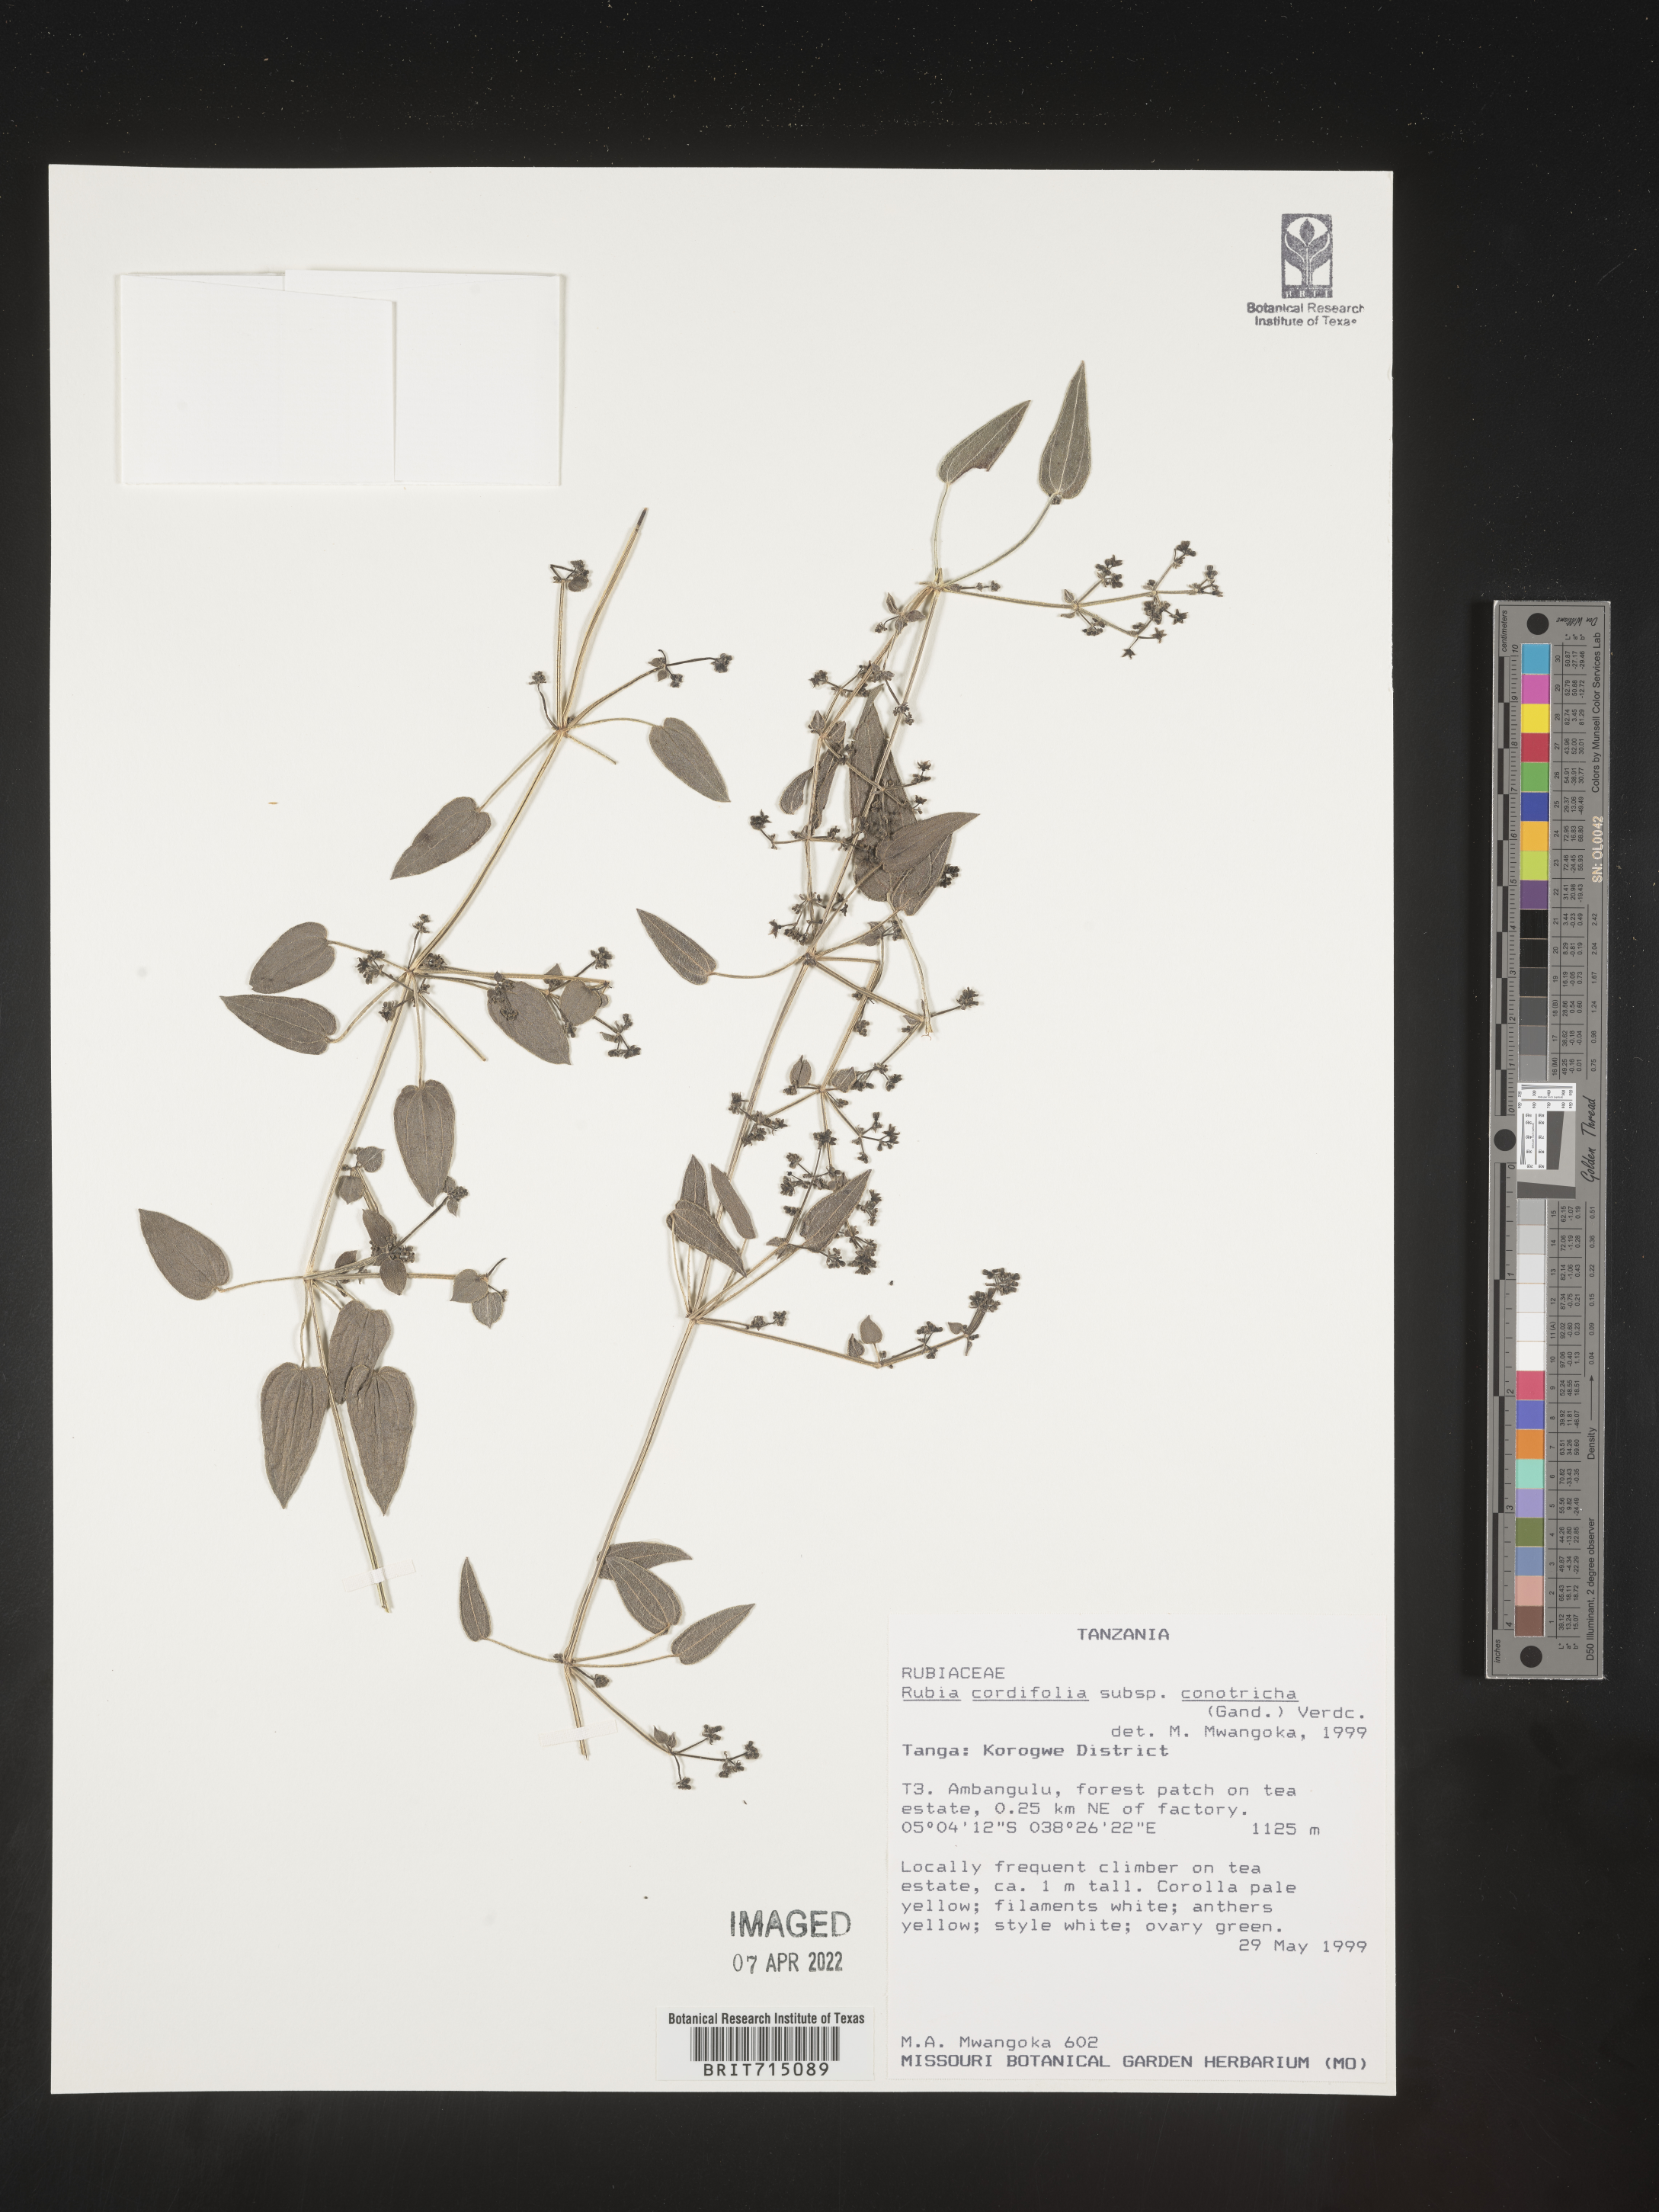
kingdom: Plantae
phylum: Tracheophyta
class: Magnoliopsida
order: Gentianales
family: Rubiaceae
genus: Rubia
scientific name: Rubia
